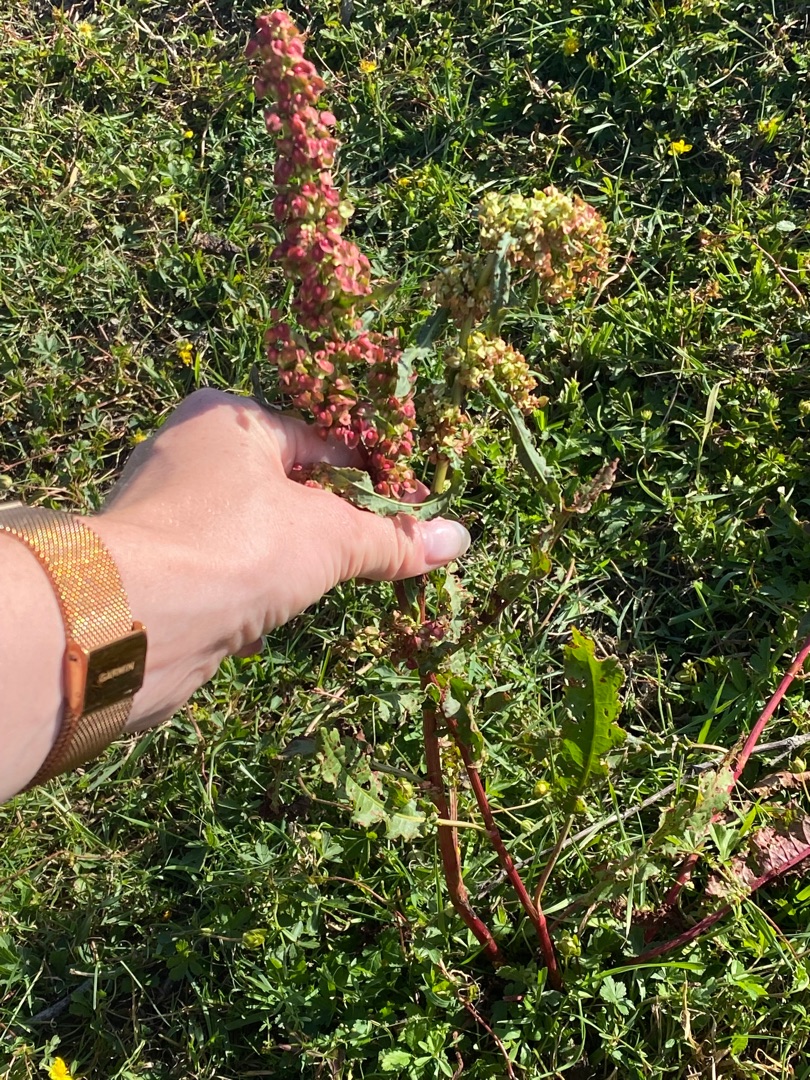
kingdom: Plantae
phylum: Tracheophyta
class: Magnoliopsida
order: Caryophyllales
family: Polygonaceae
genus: Rumex
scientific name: Rumex crispus
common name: Kruset skræppe
